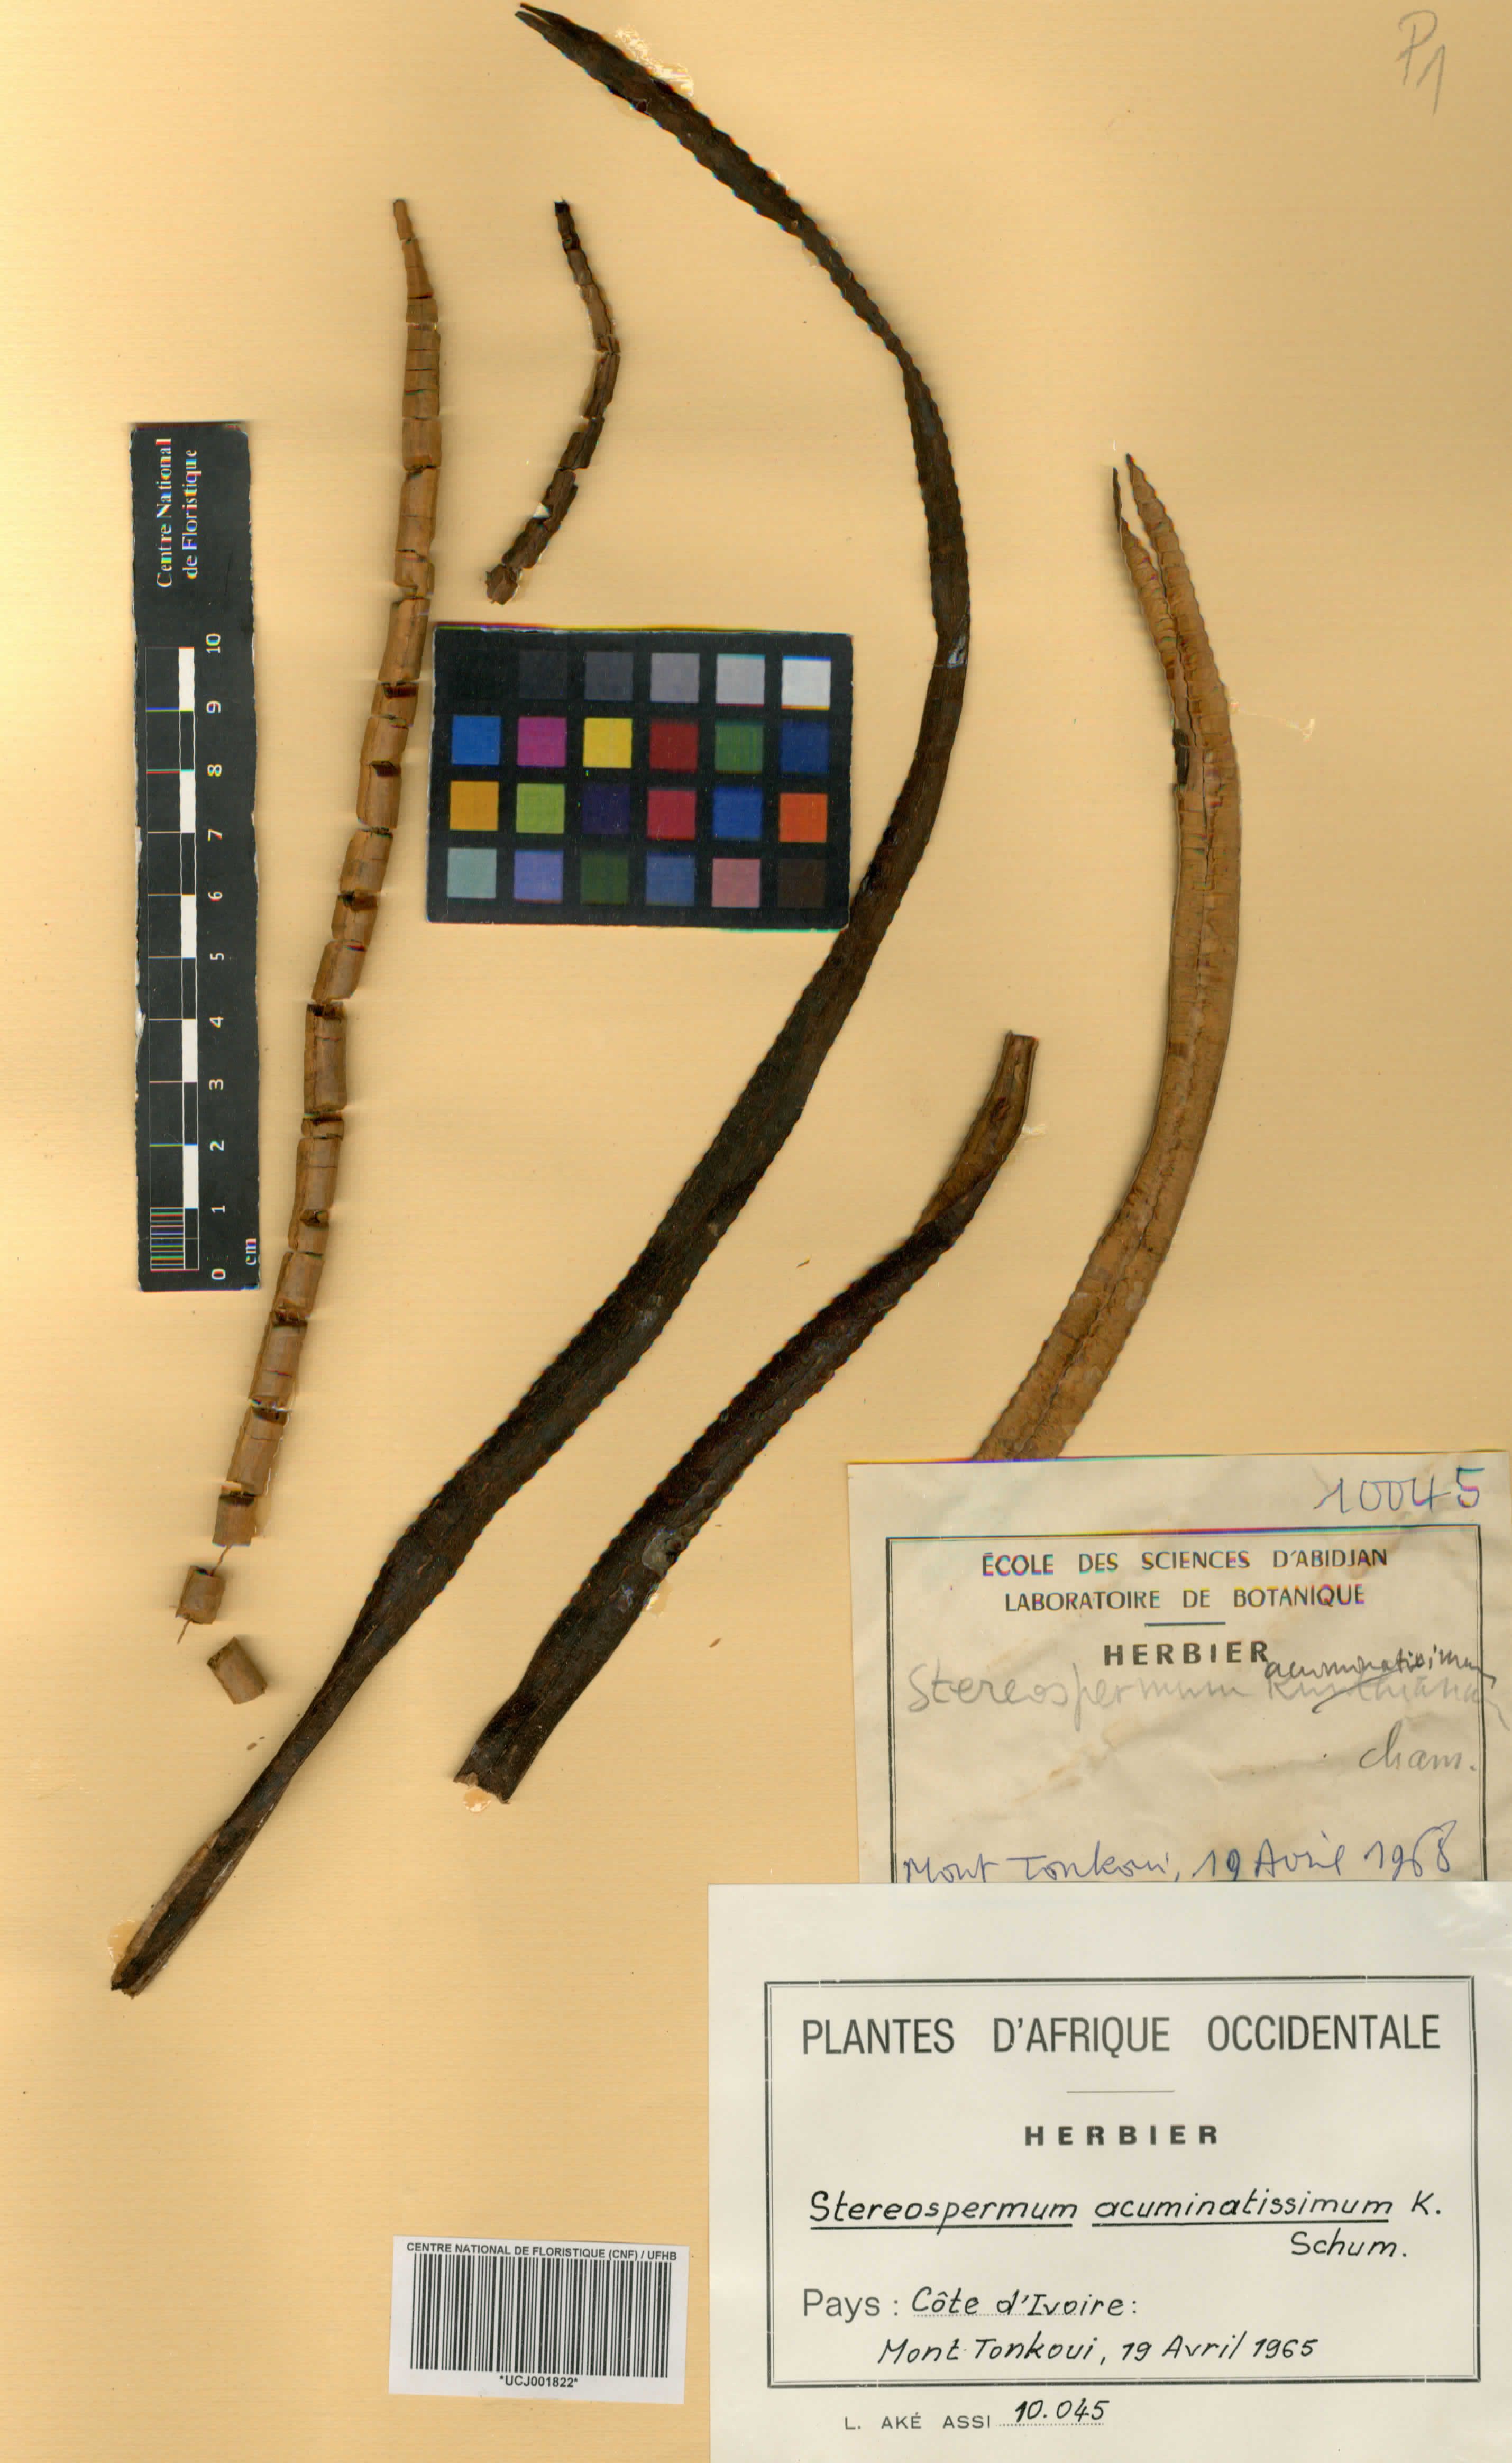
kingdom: Plantae
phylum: Tracheophyta
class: Magnoliopsida
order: Lamiales
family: Bignoniaceae
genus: Stereospermum
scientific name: Stereospermum kunthianum
